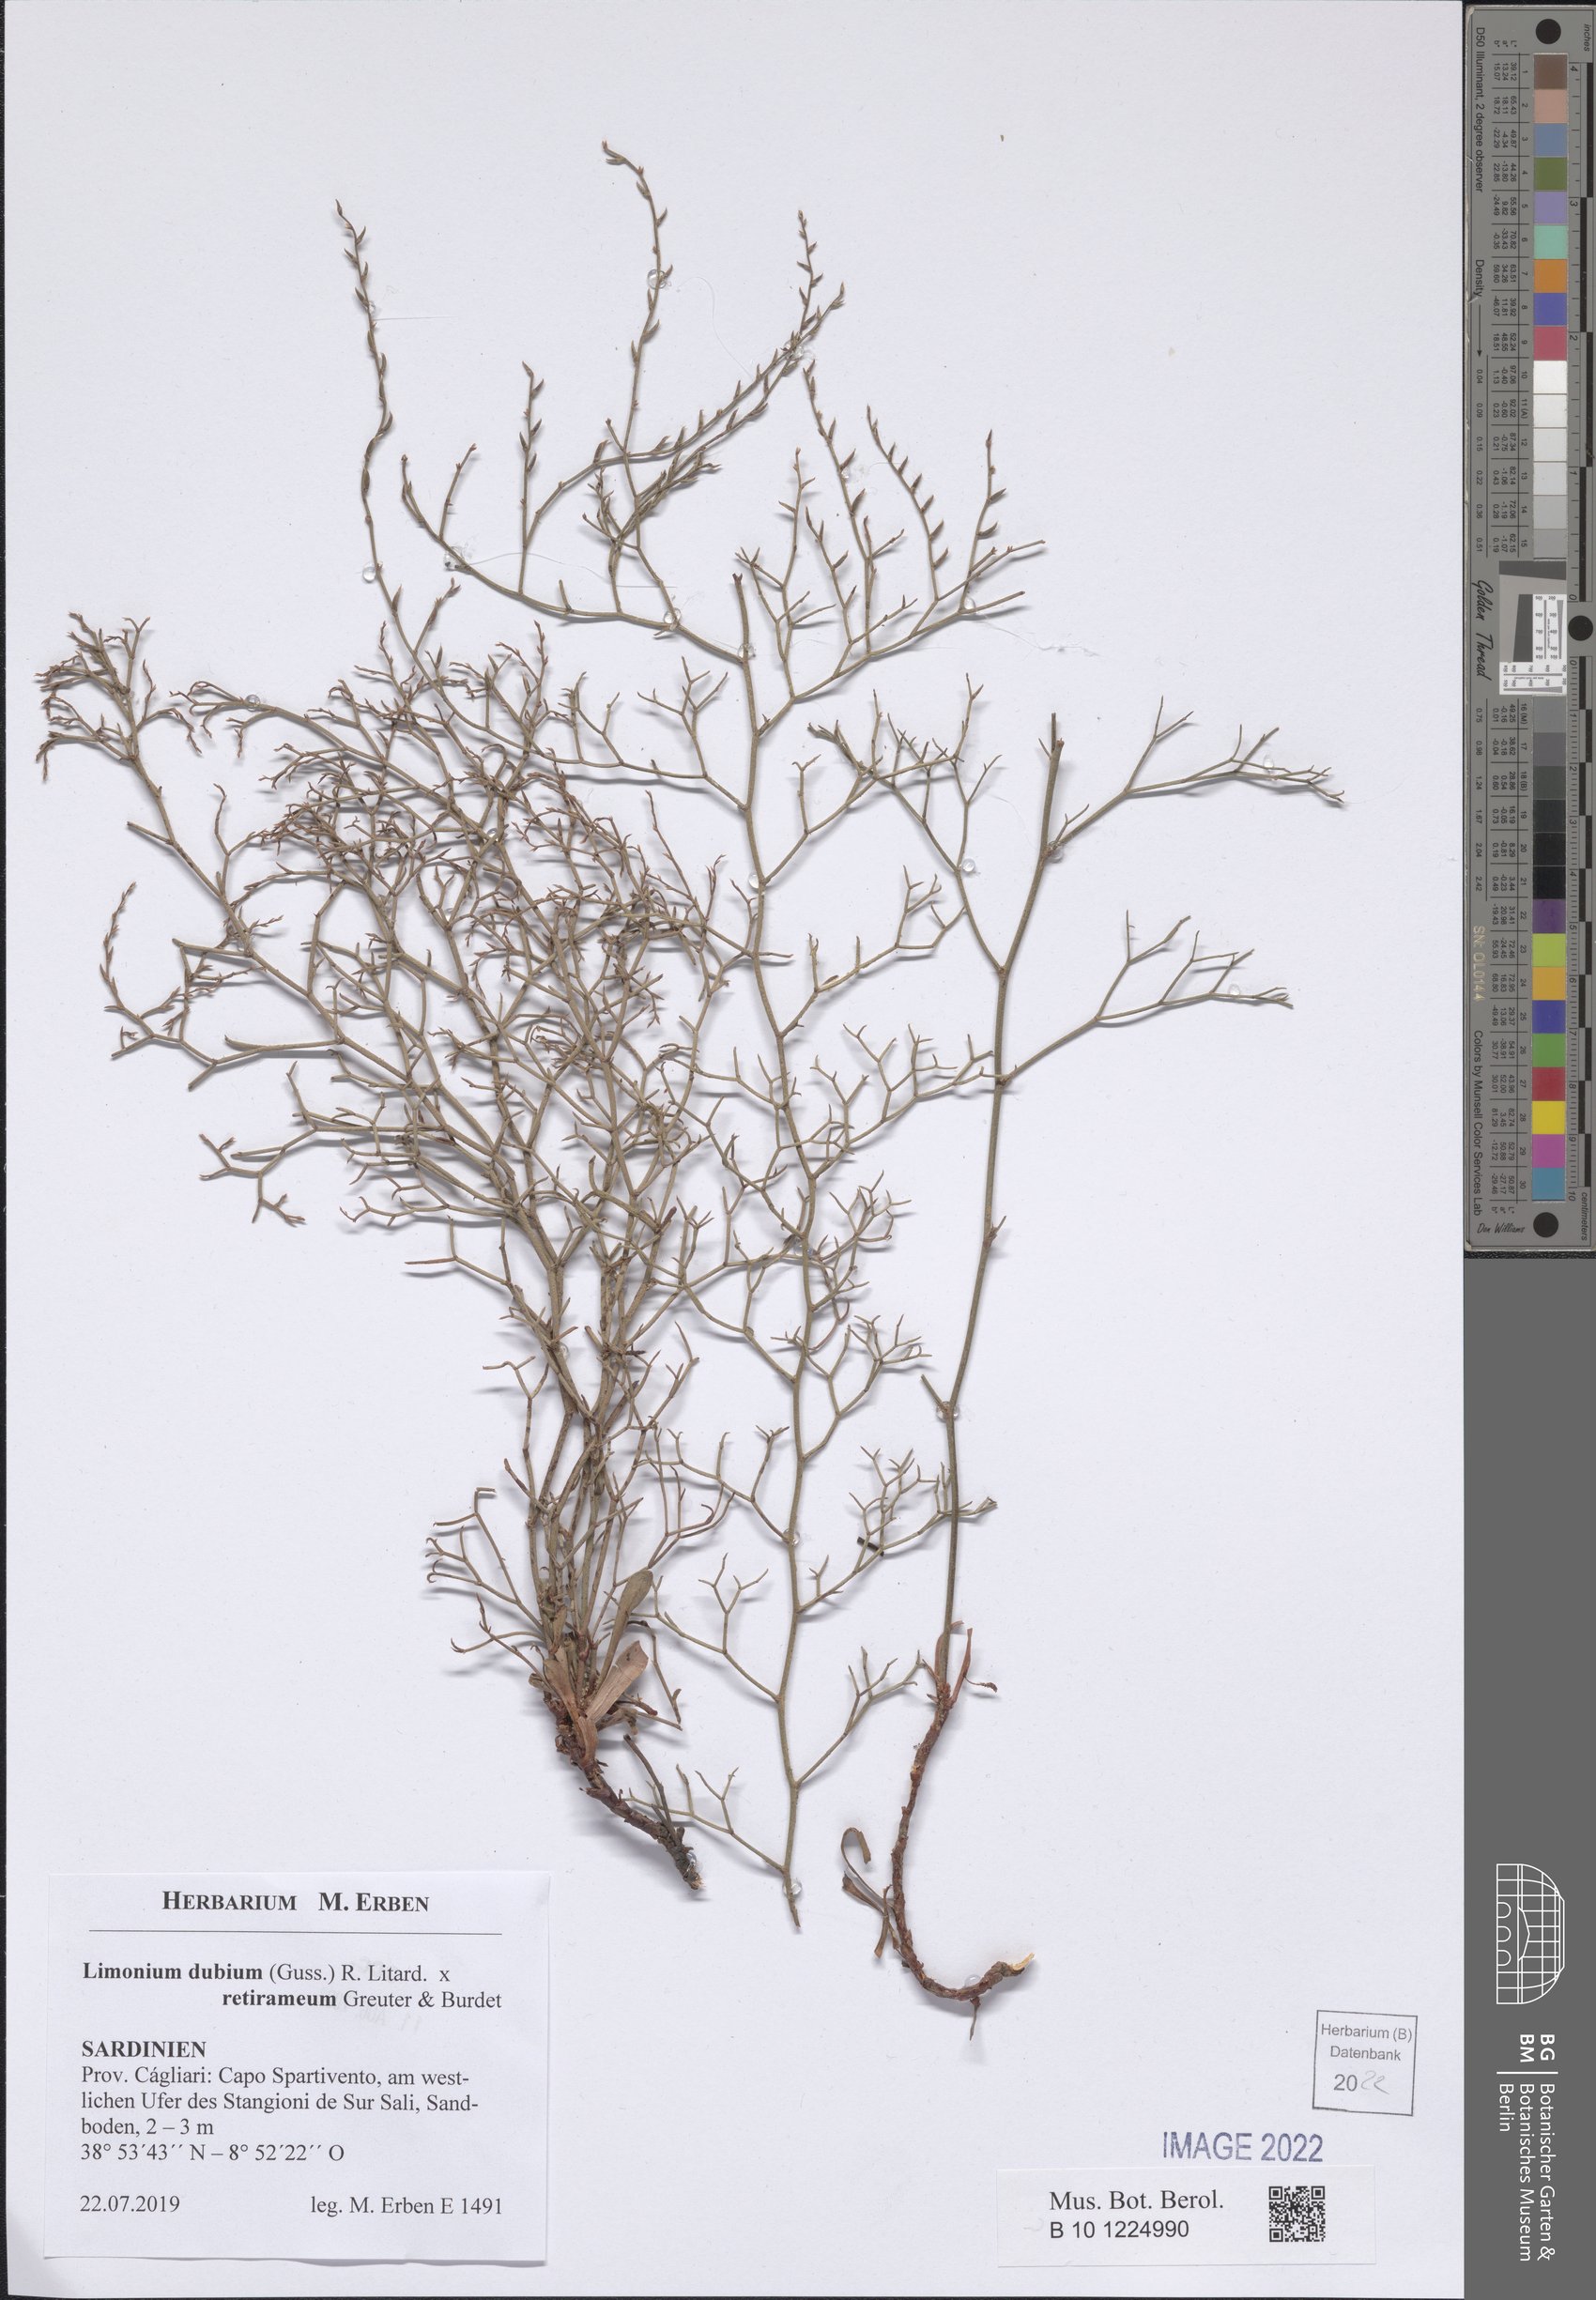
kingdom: Plantae
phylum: Tracheophyta
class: Magnoliopsida
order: Caryophyllales
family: Plumbaginaceae
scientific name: Plumbaginaceae
